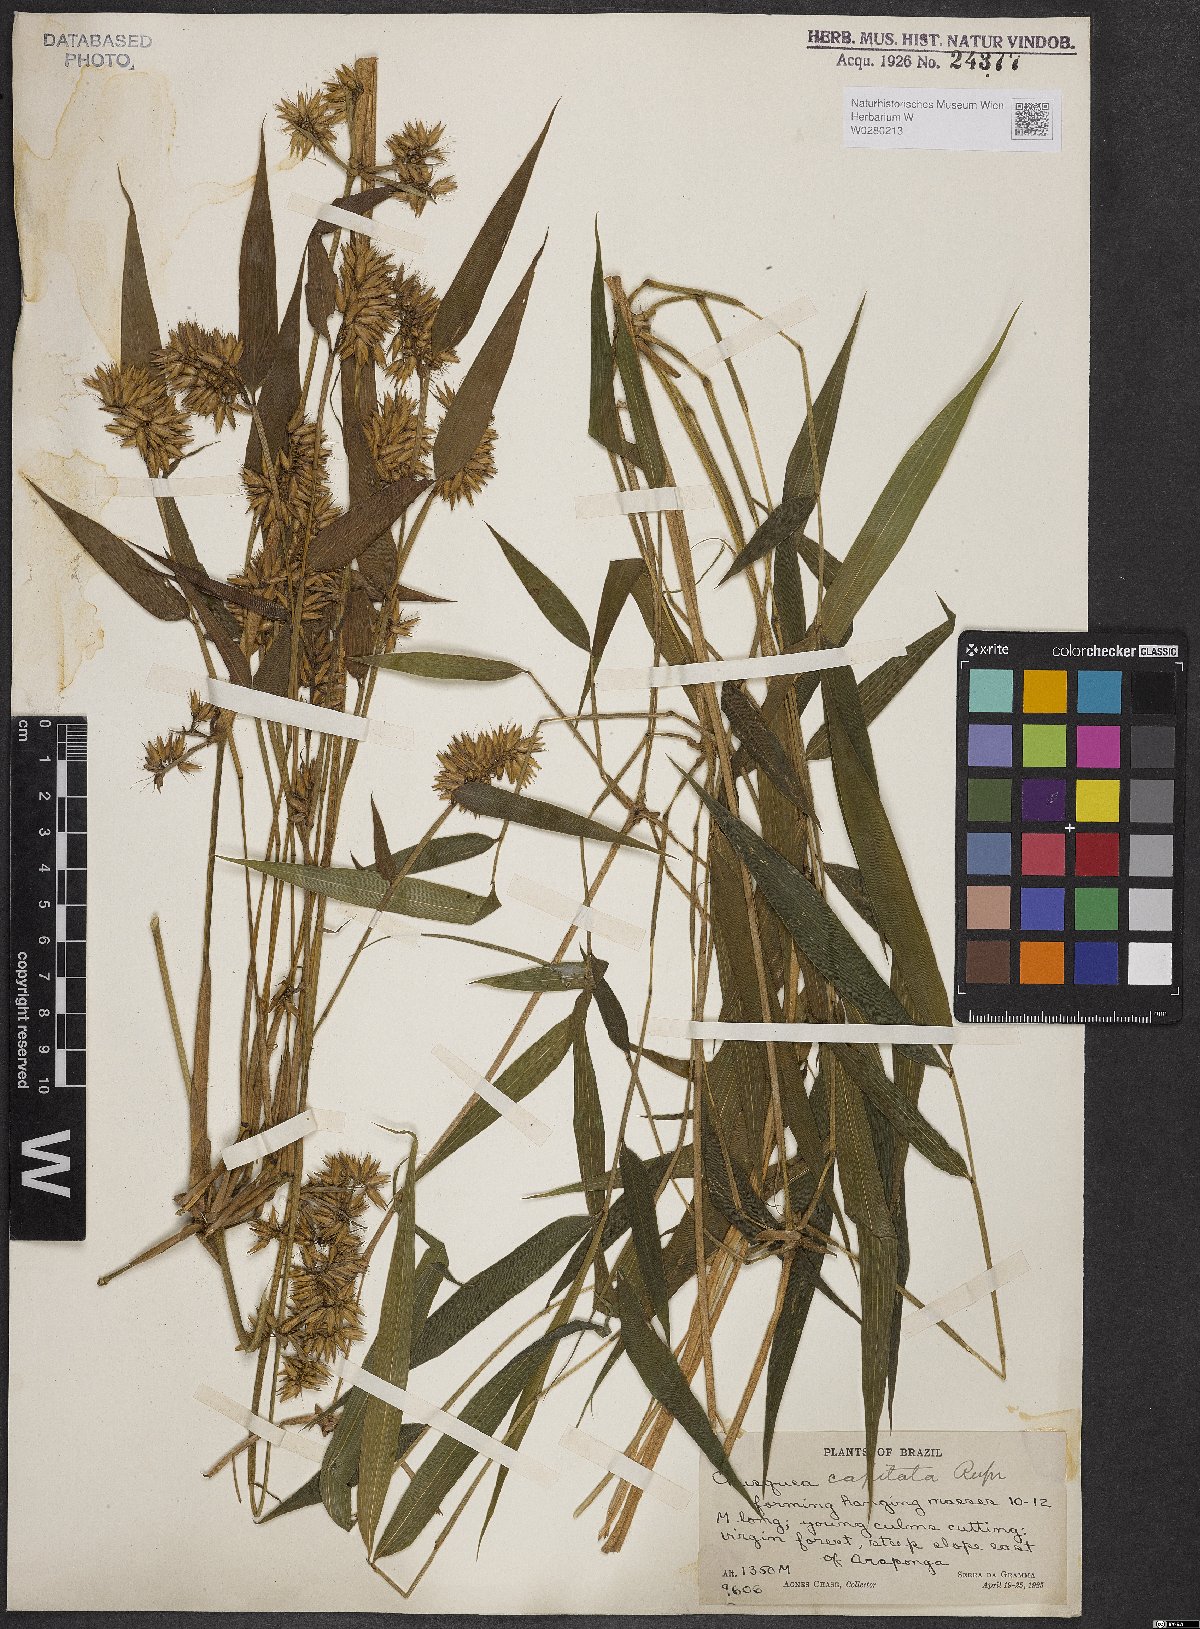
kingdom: Plantae
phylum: Tracheophyta
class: Liliopsida
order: Poales
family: Poaceae
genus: Chusquea
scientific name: Chusquea capitata
